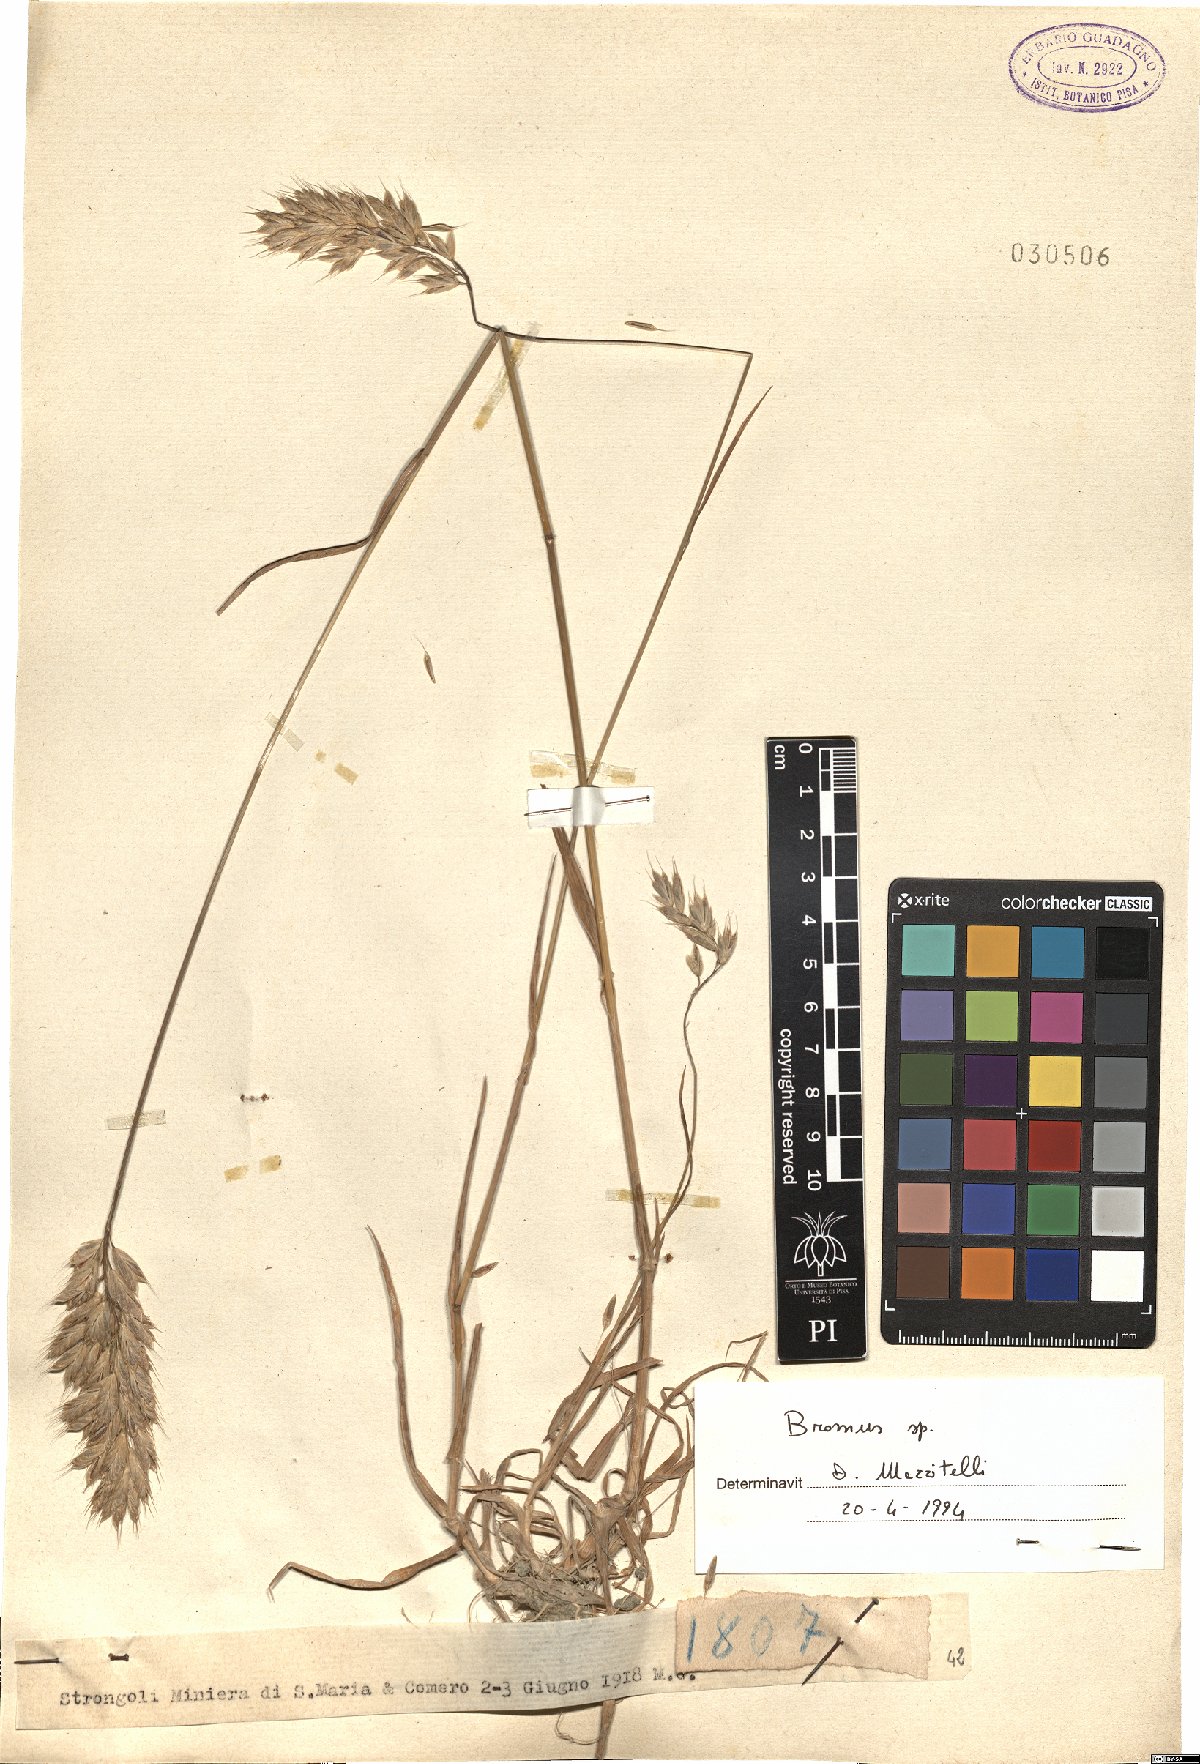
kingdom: Plantae
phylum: Tracheophyta
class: Liliopsida
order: Poales
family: Poaceae
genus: Bromus
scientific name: Bromus
